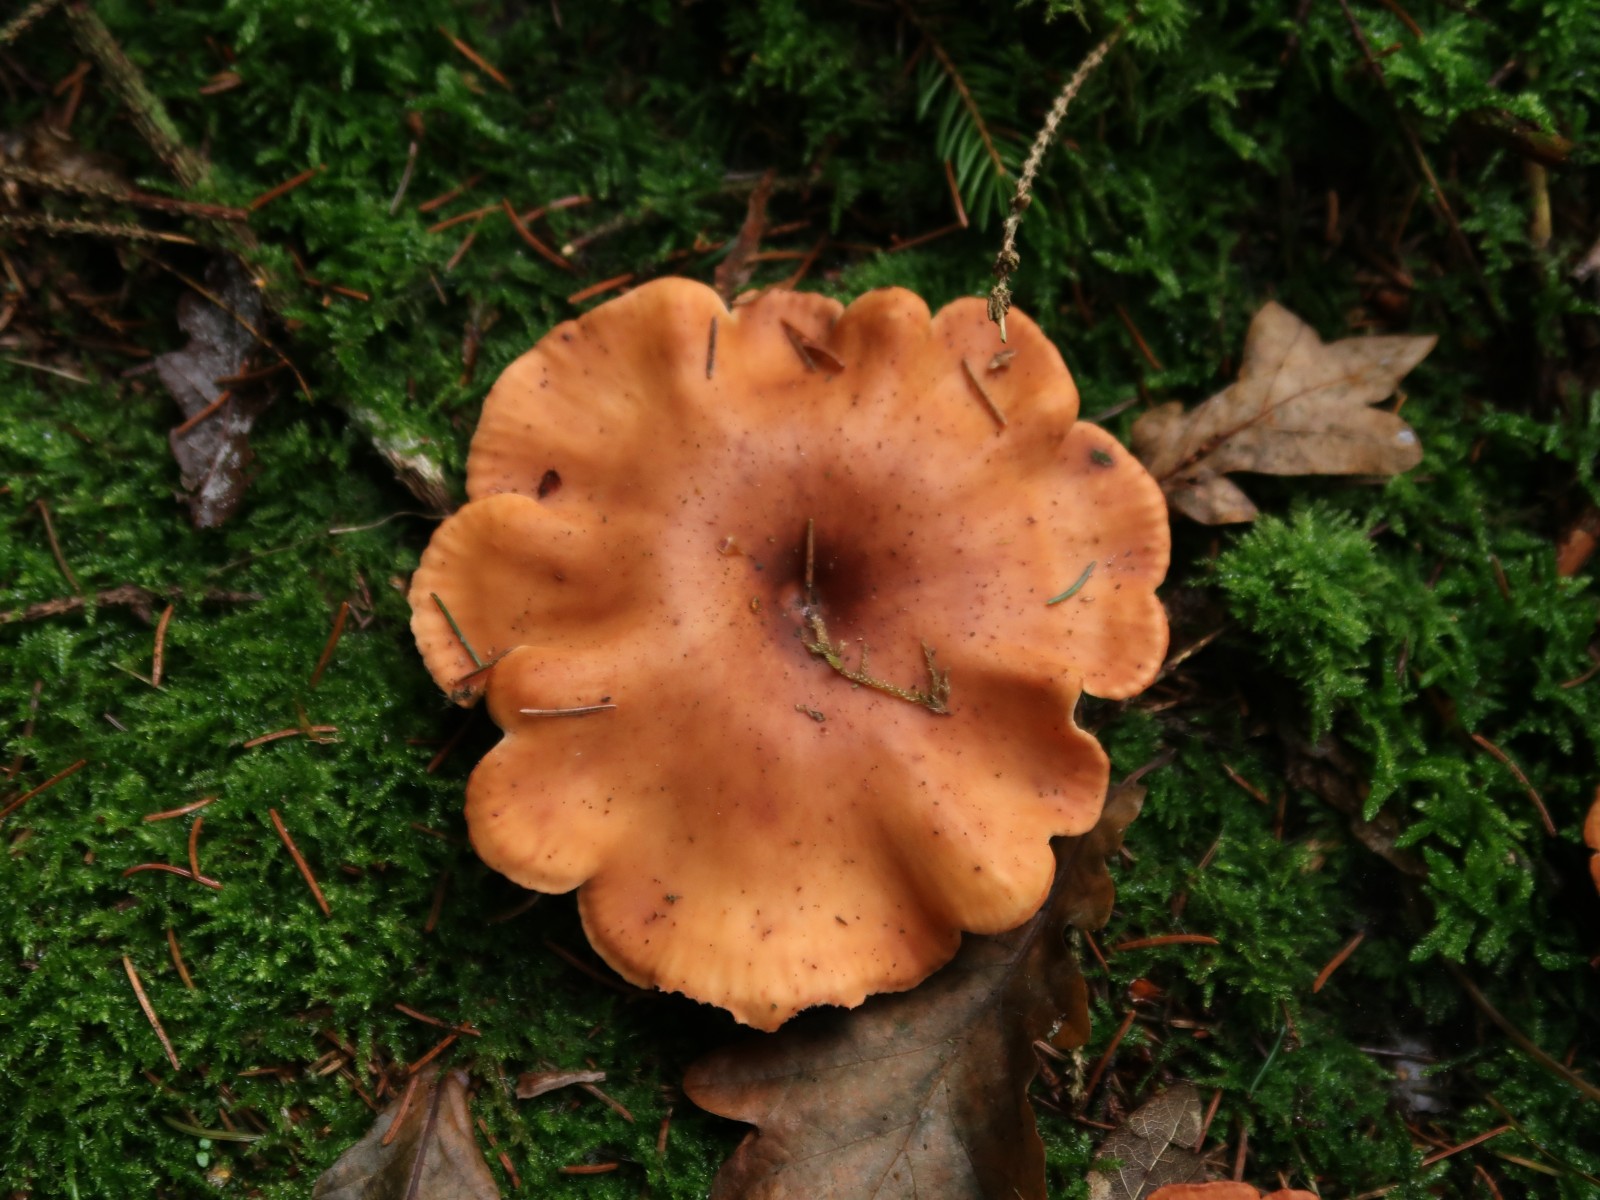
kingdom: Fungi
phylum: Basidiomycota
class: Agaricomycetes
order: Agaricales
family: Tricholomataceae
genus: Paralepista
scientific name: Paralepista flaccida
